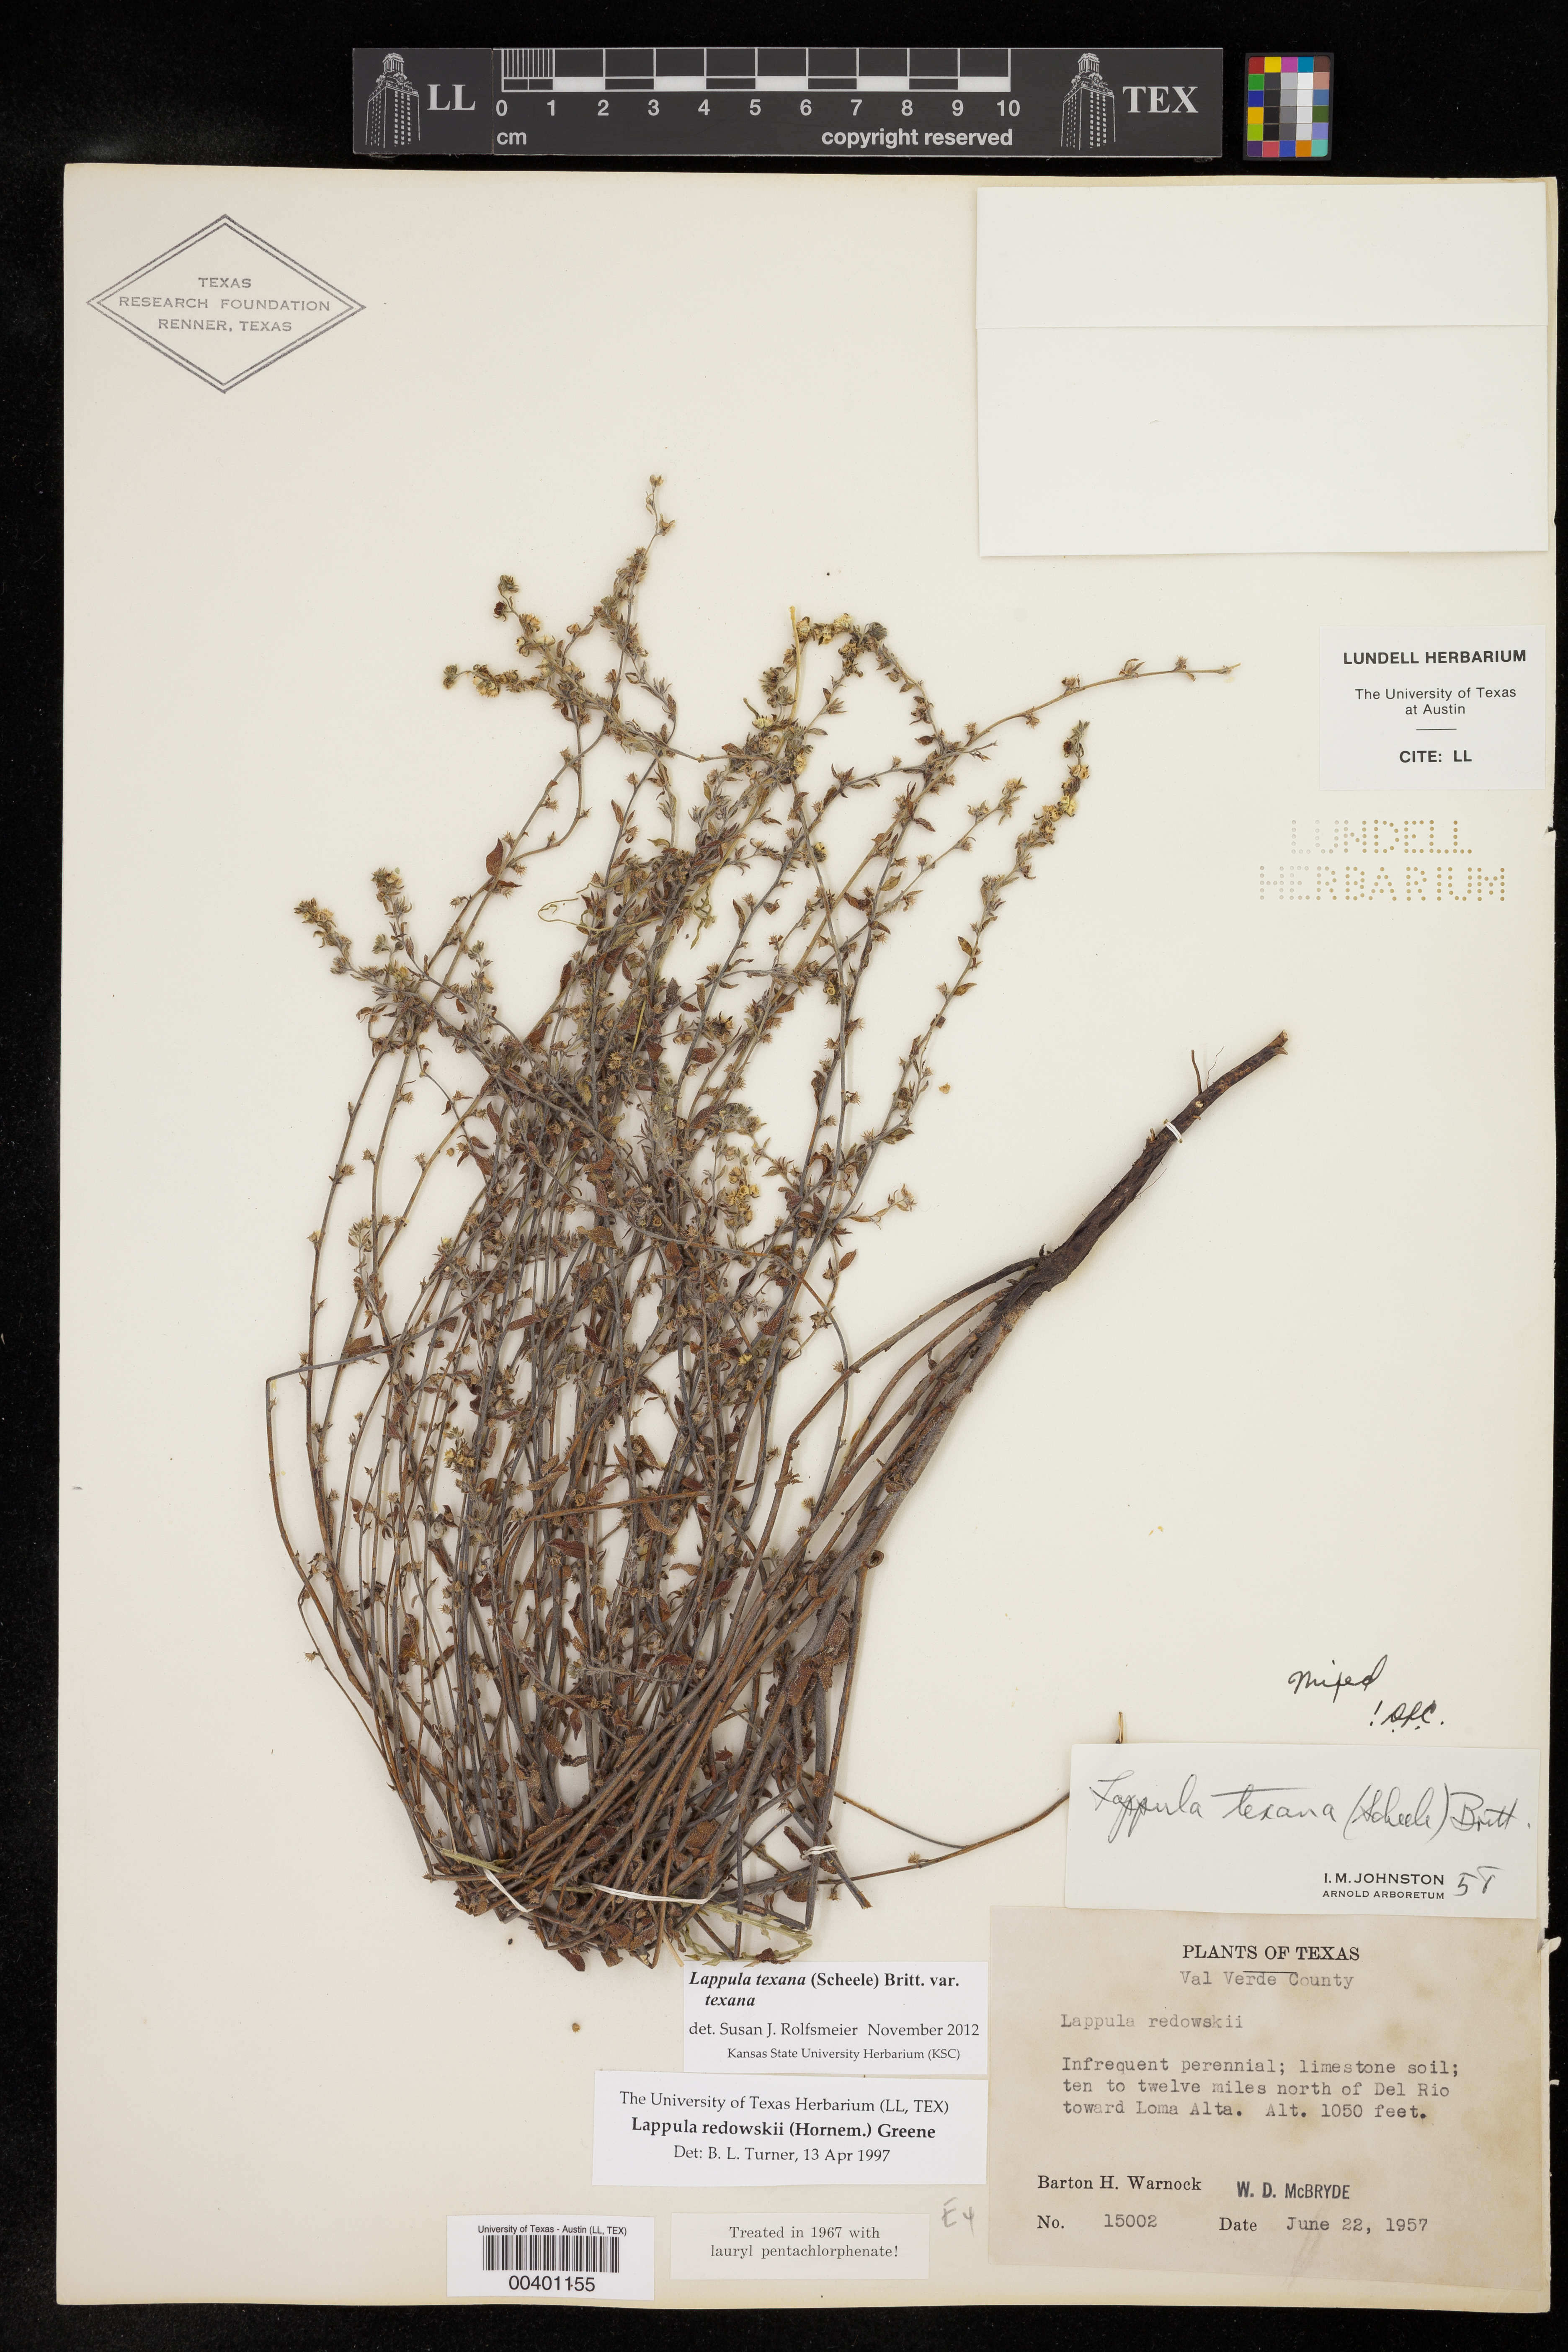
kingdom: Plantae
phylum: Tracheophyta
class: Magnoliopsida
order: Boraginales
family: Boraginaceae
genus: Lappula
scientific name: Lappula texana
